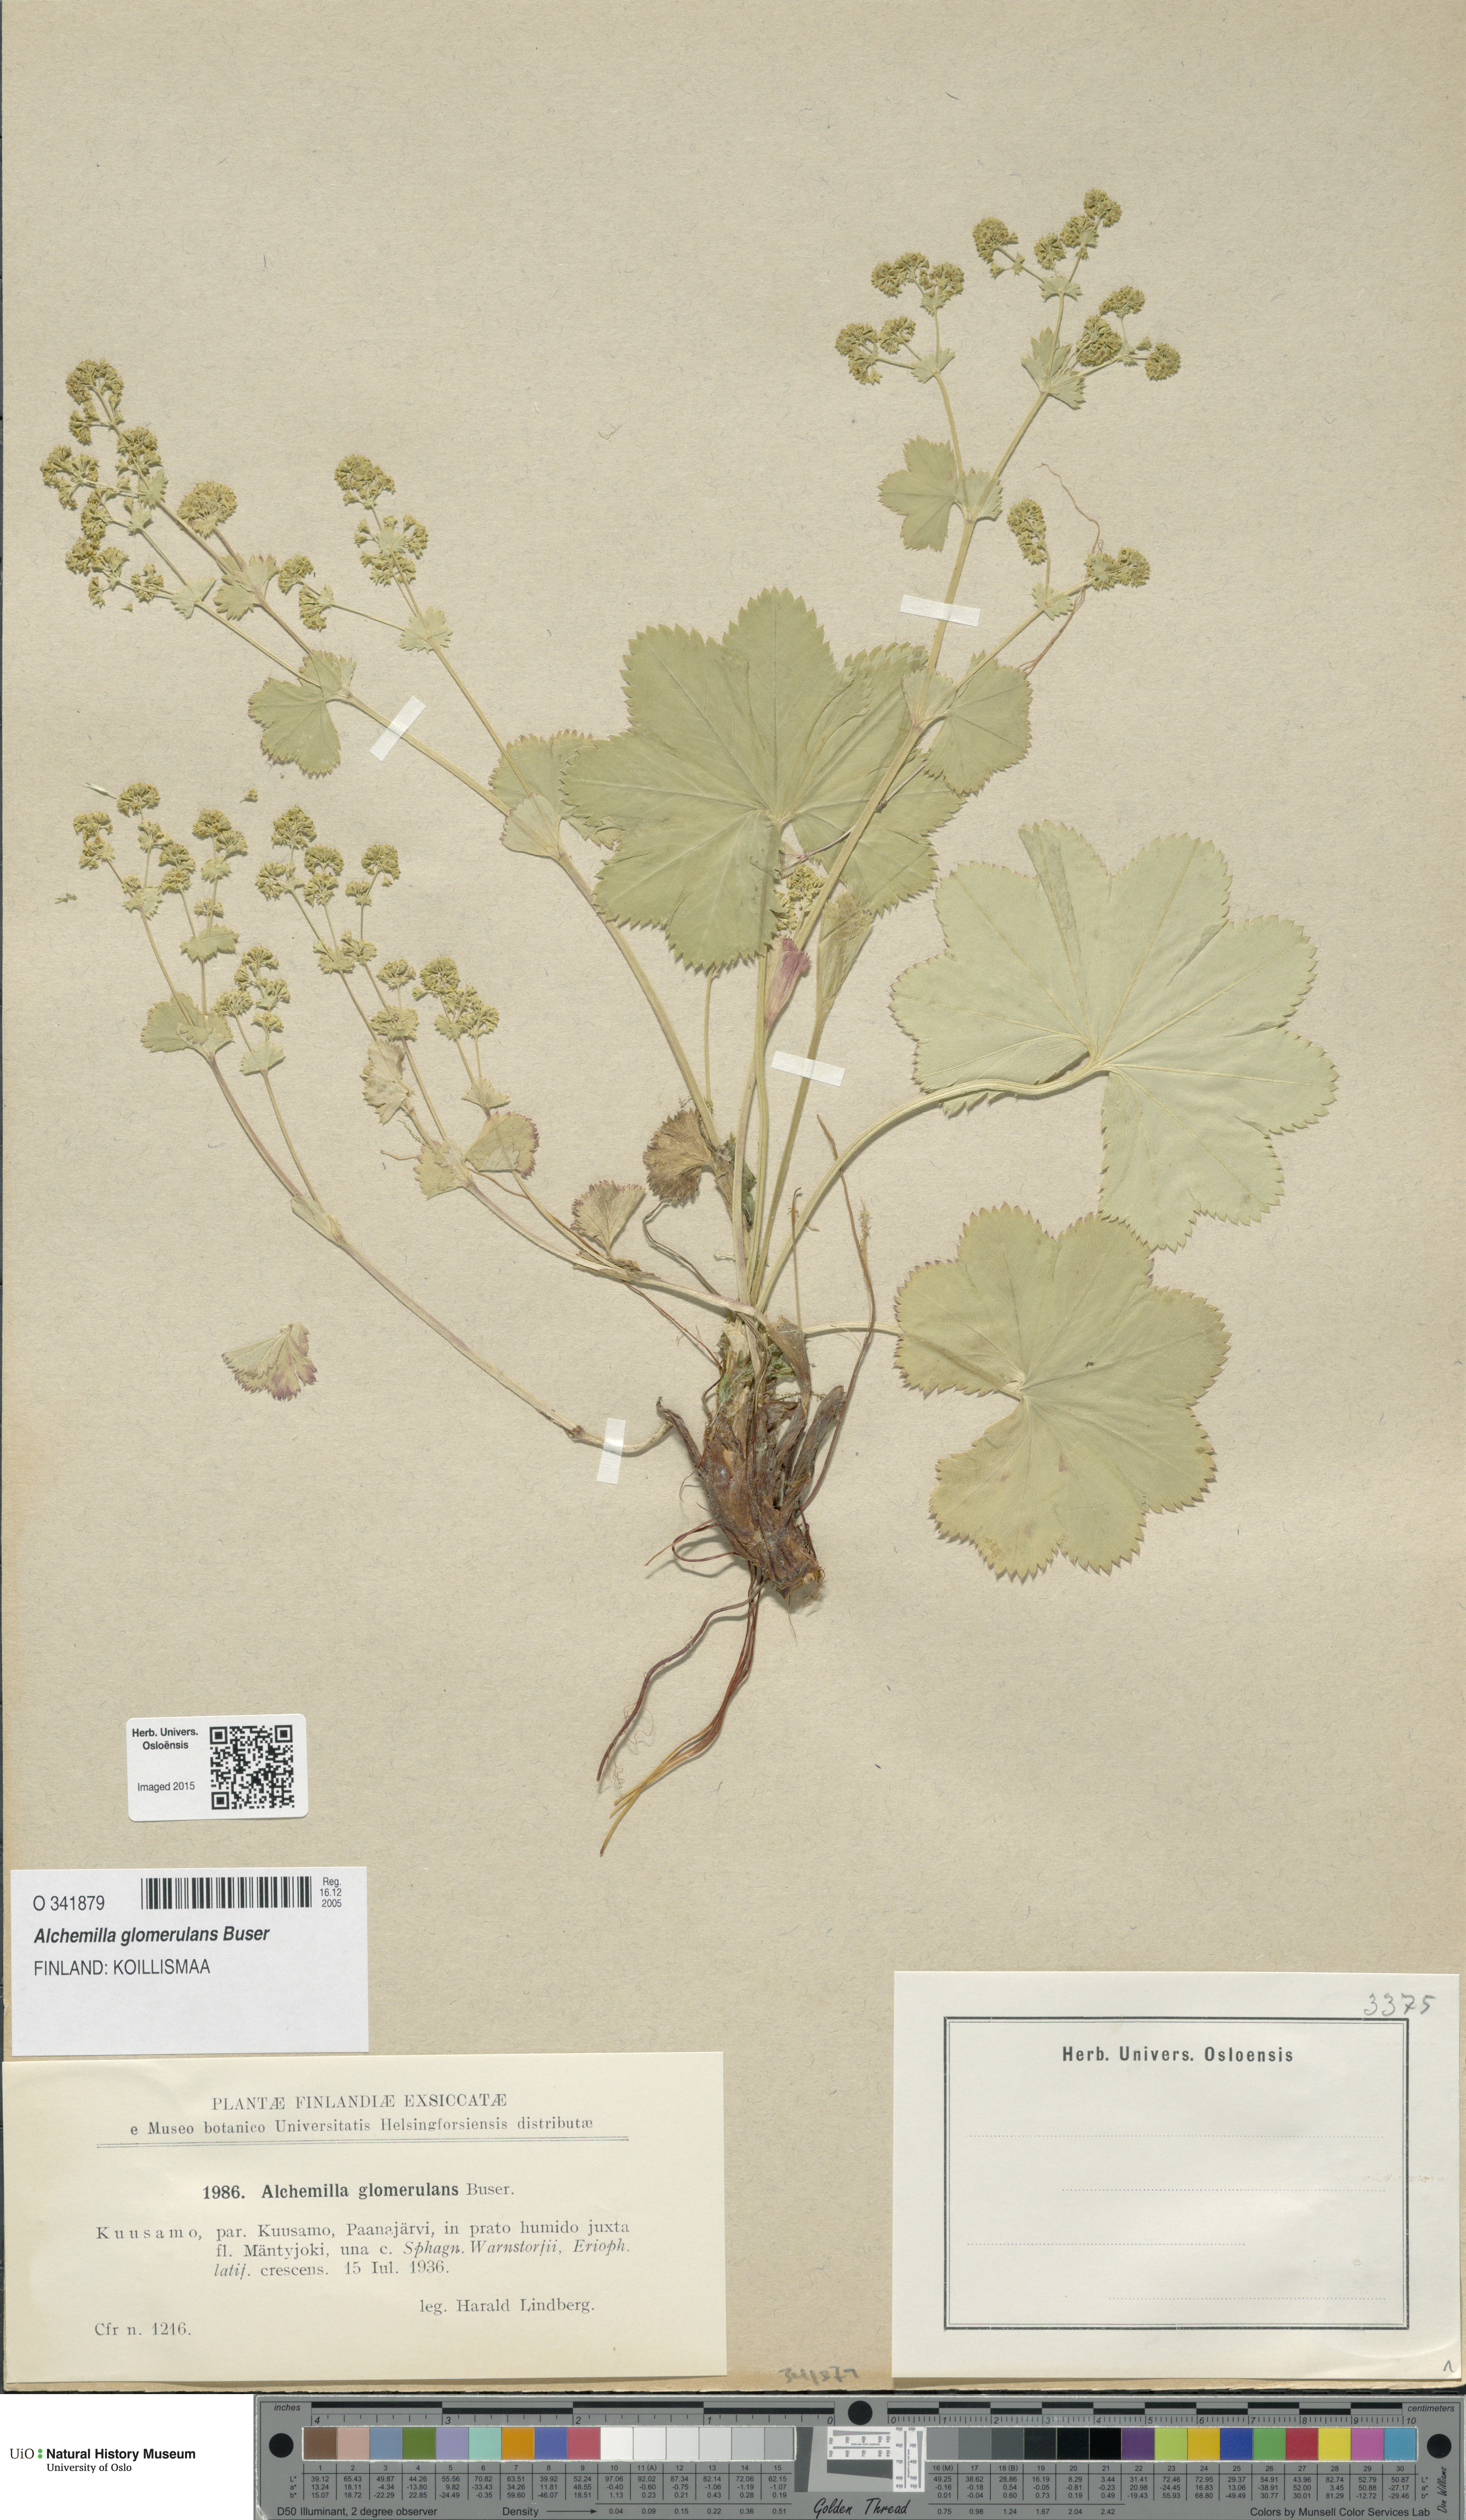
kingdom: Plantae
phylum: Tracheophyta
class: Magnoliopsida
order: Rosales
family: Rosaceae
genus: Alchemilla
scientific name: Alchemilla glomerulans
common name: Clustered lady's mantle
